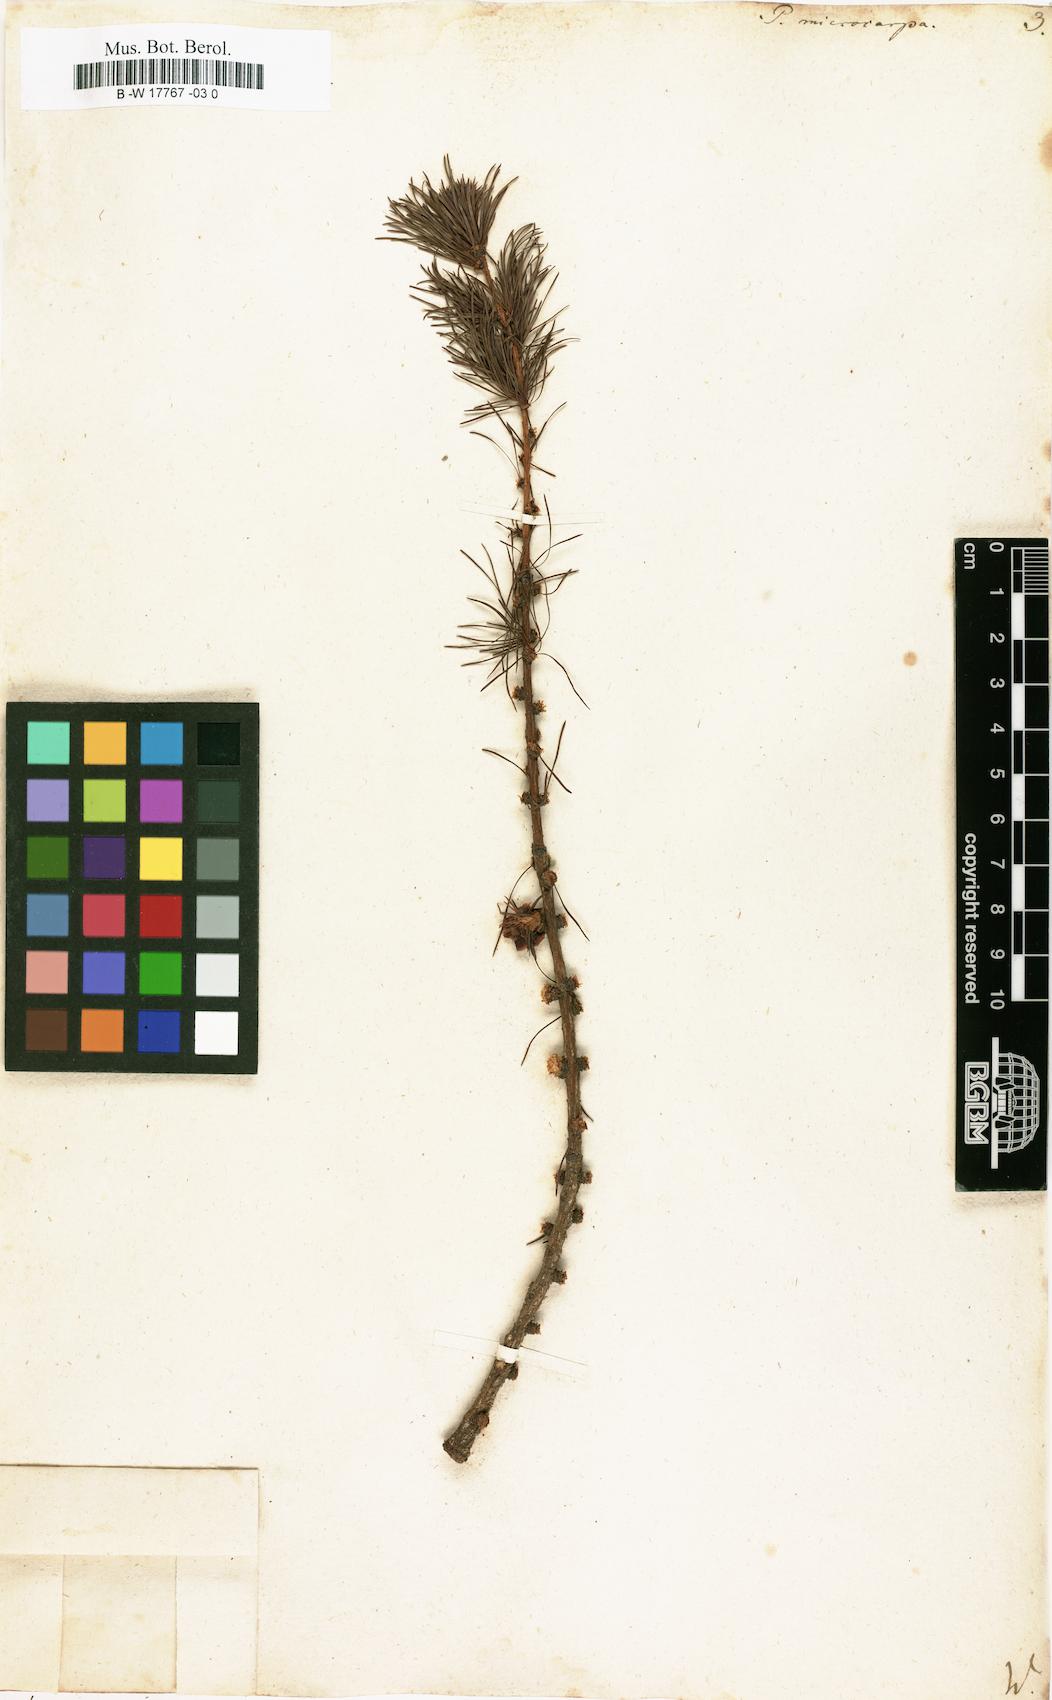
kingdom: Plantae
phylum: Tracheophyta
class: Pinopsida
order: Pinales
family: Pinaceae
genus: Larix
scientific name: Larix laricina
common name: American larch
